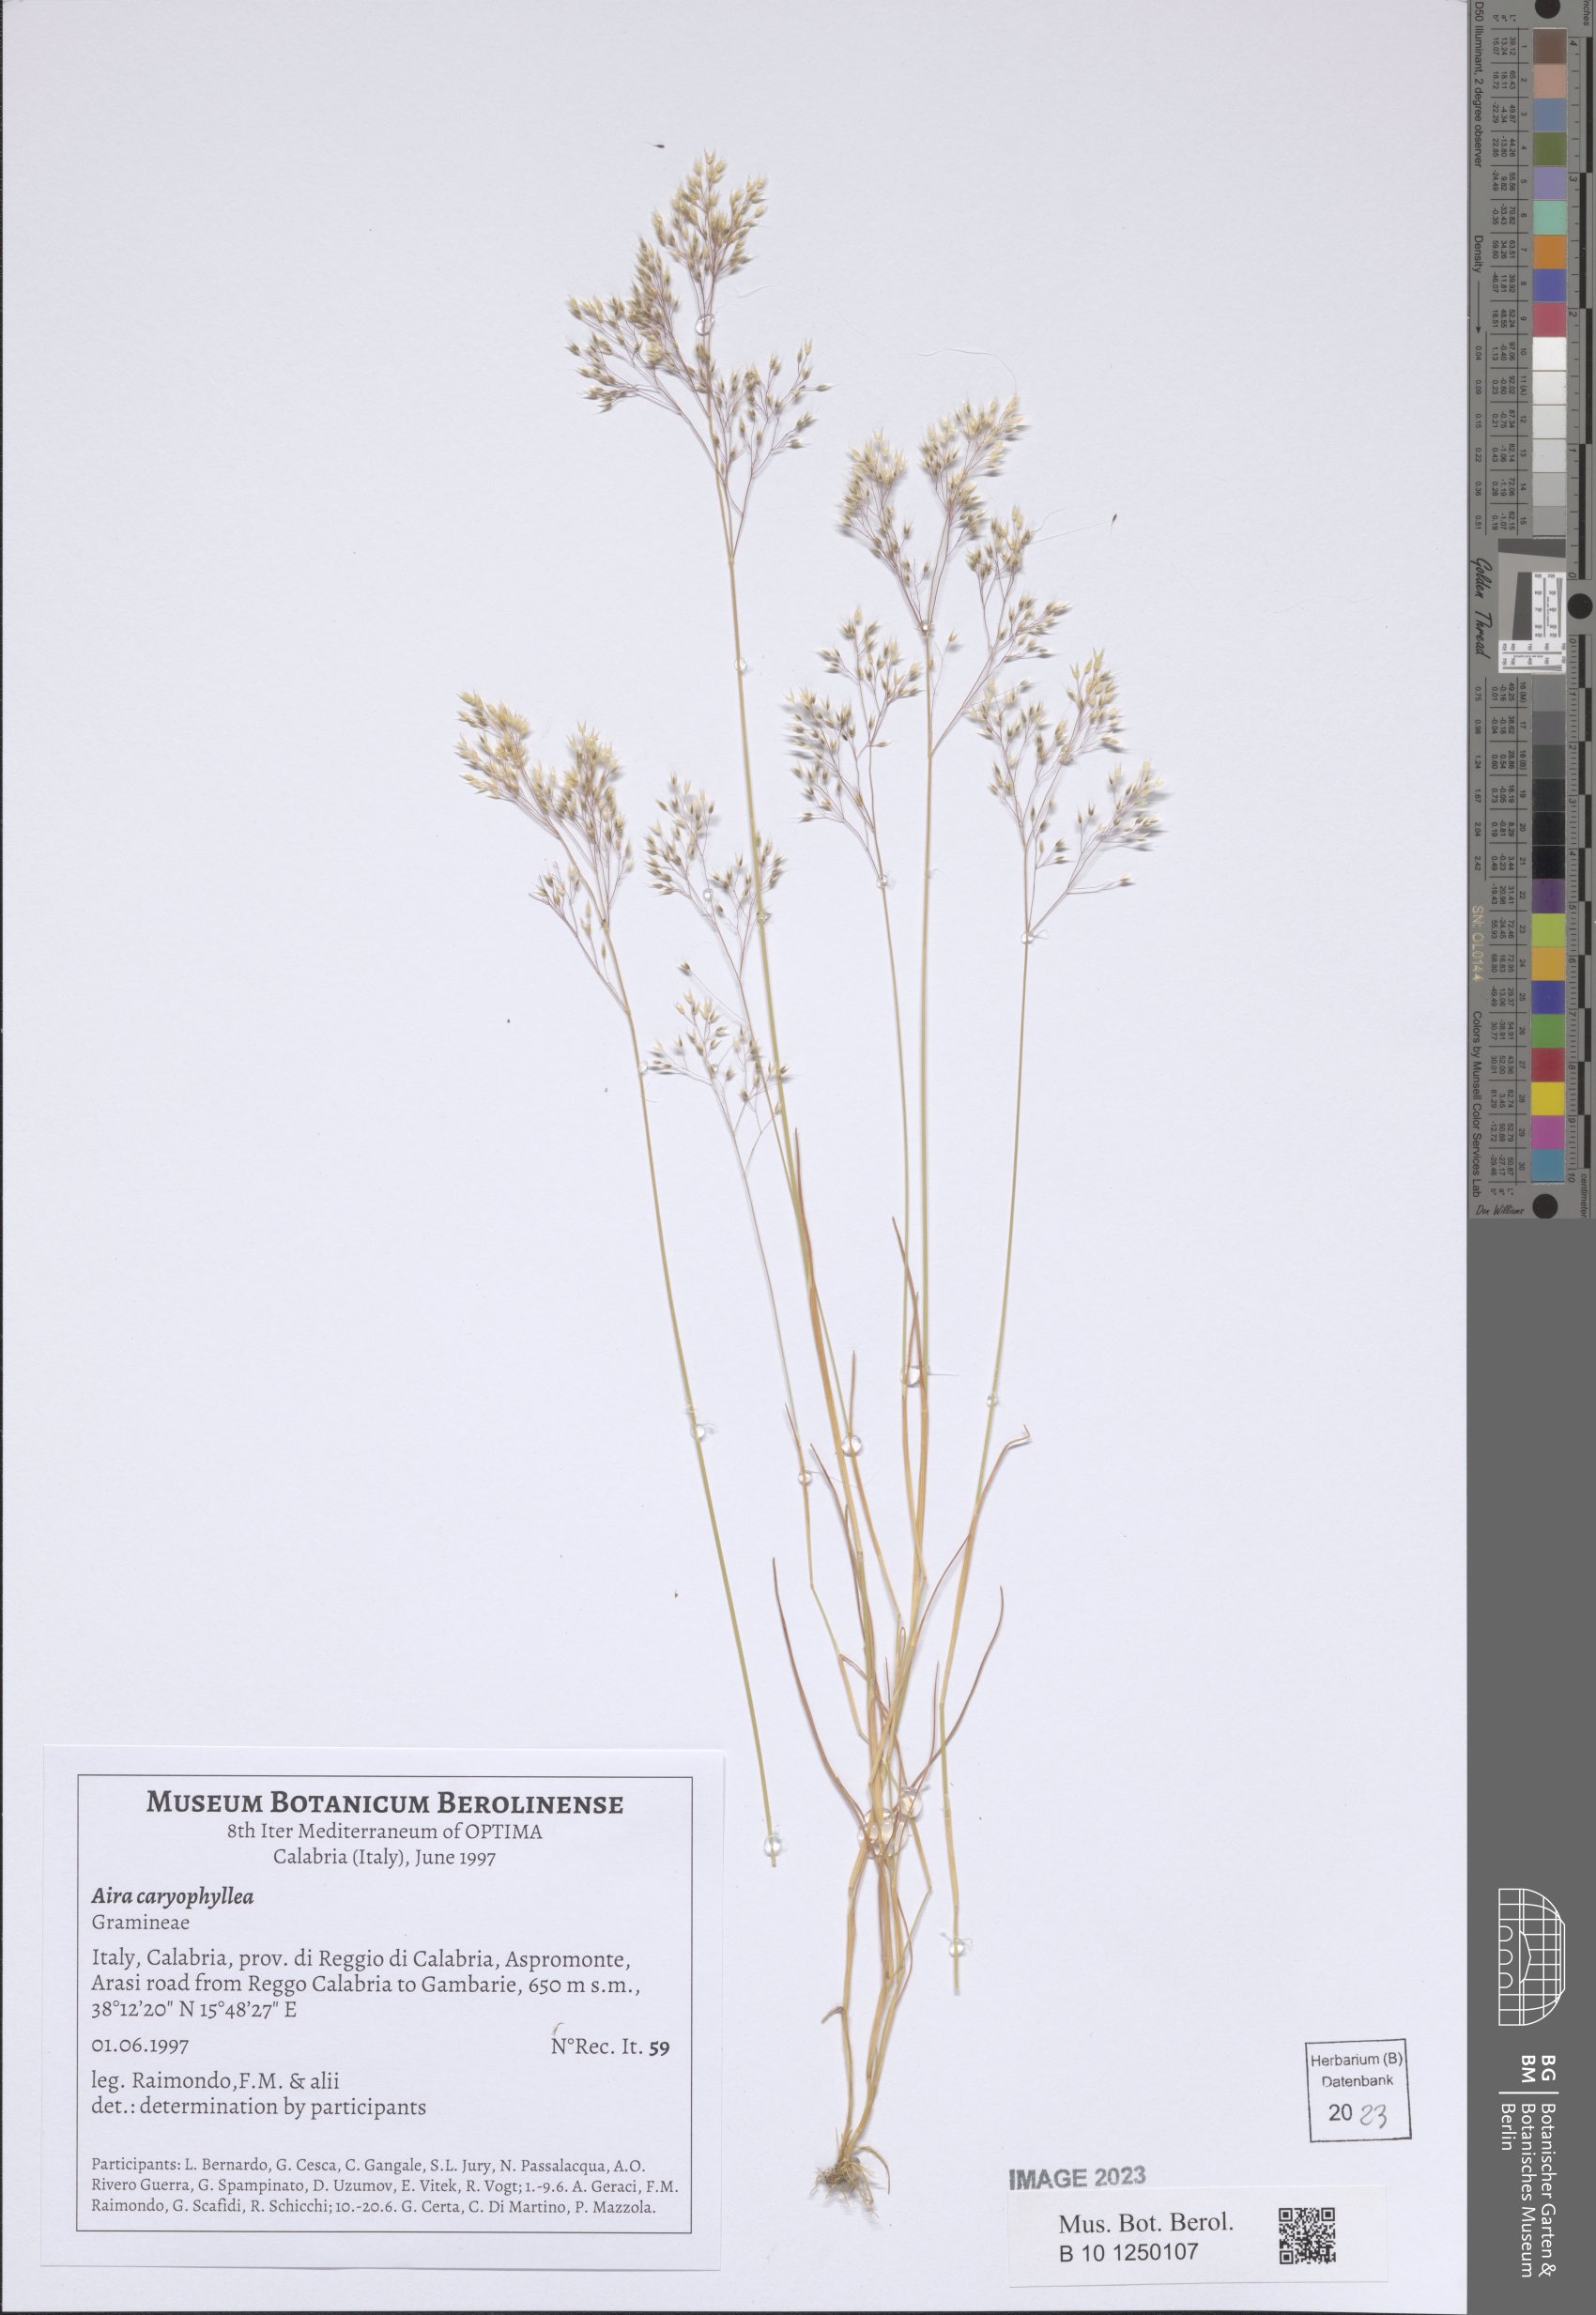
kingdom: Plantae
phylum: Tracheophyta
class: Liliopsida
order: Poales
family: Poaceae
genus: Aira
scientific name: Aira caryophyllea
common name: Silver hairgrass
